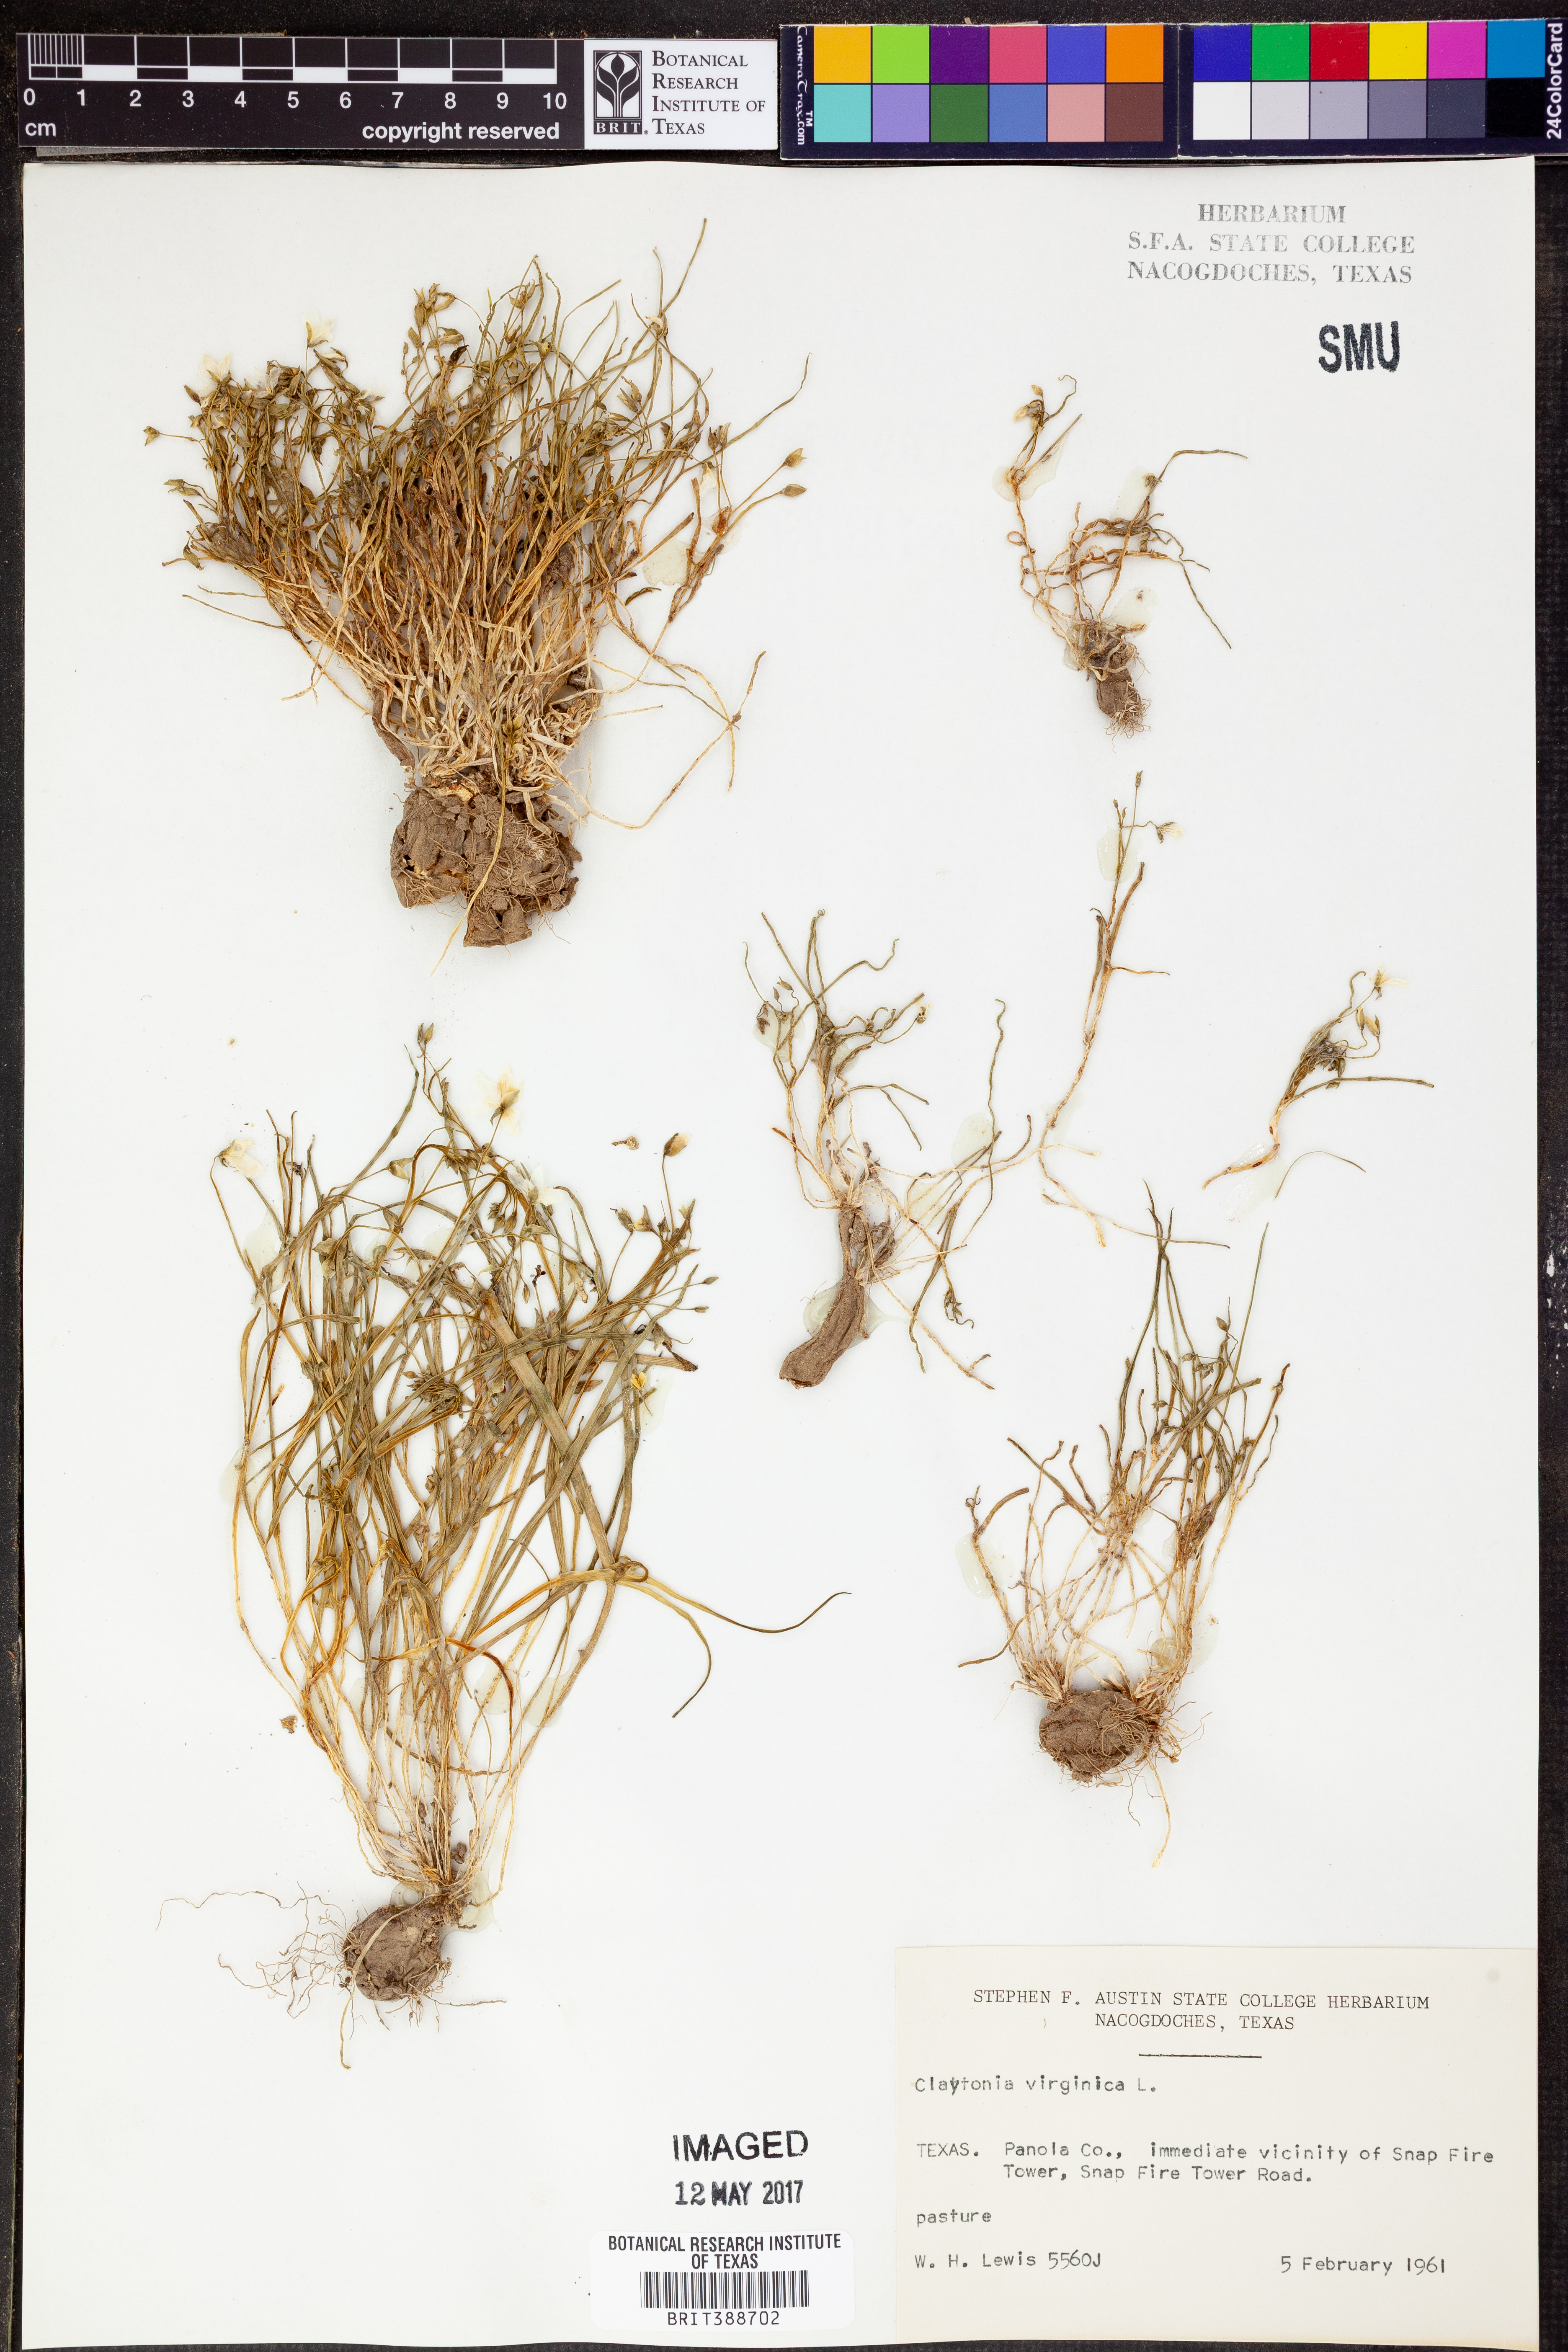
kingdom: Plantae
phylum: Tracheophyta
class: Magnoliopsida
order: Caryophyllales
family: Montiaceae
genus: Claytonia
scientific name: Claytonia virginica
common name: Virginia springbeauty
